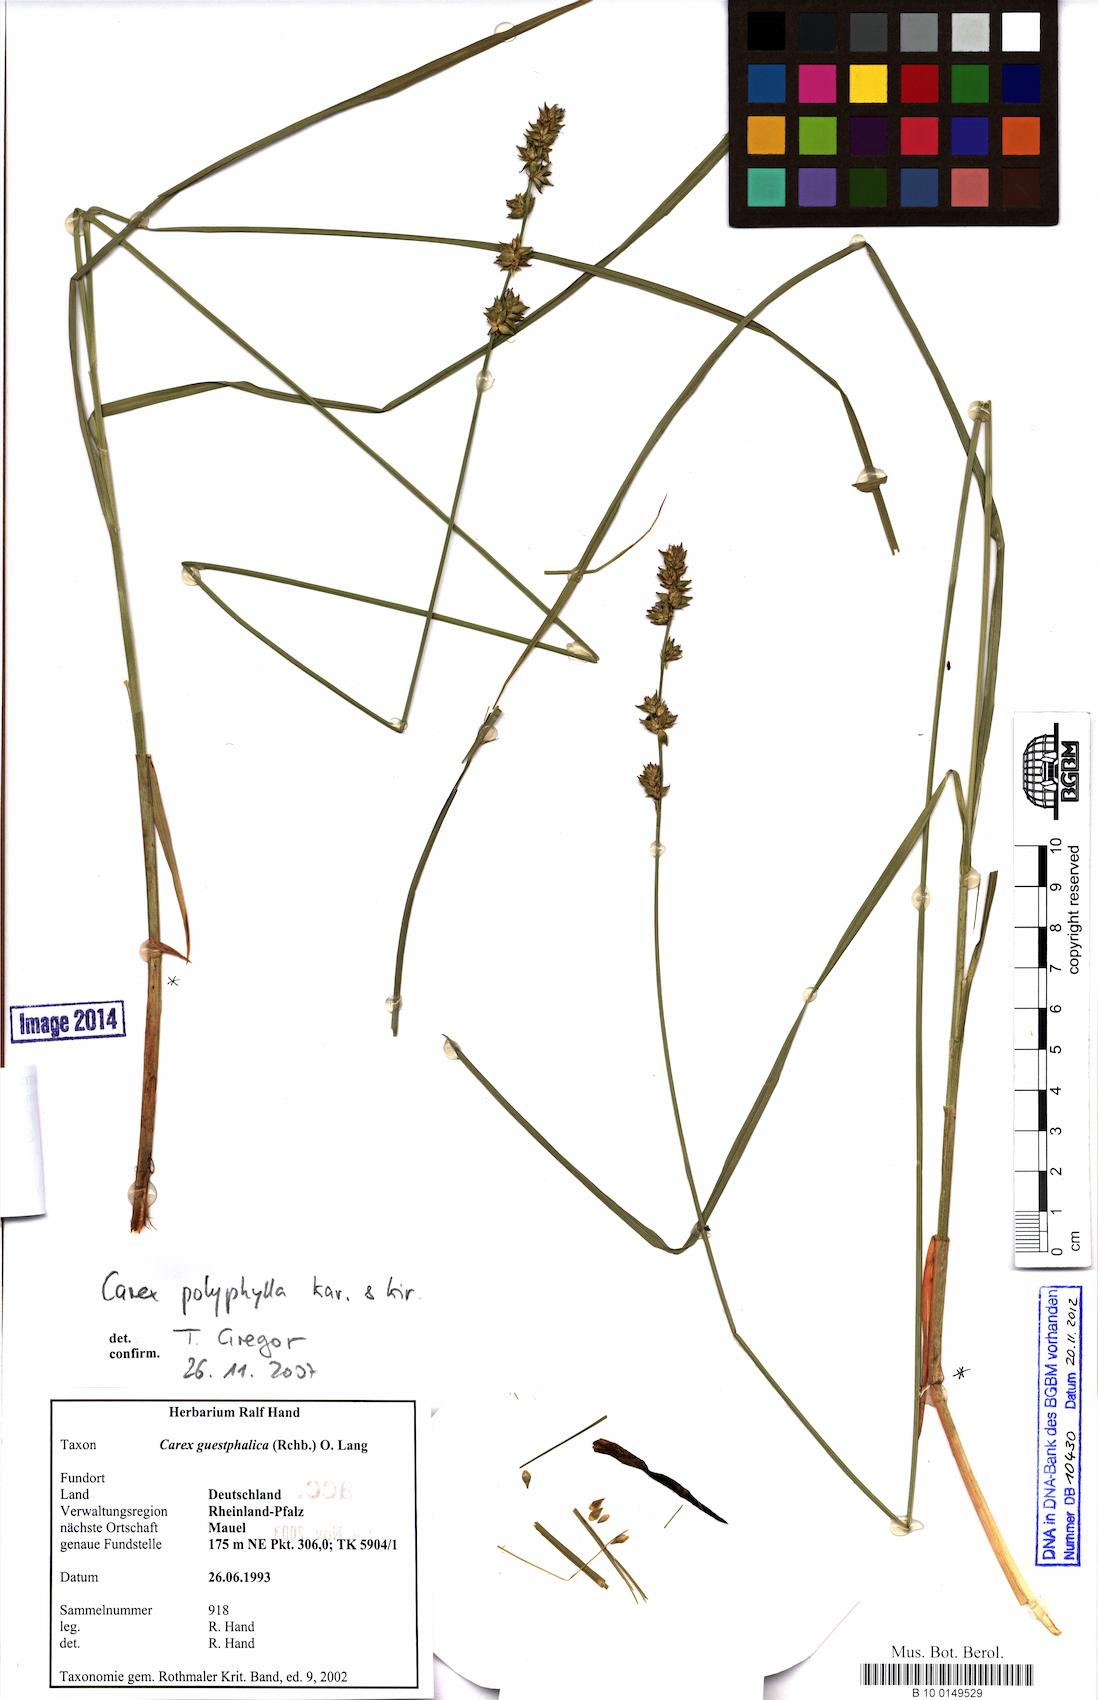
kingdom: Plantae
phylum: Tracheophyta
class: Liliopsida
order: Poales
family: Cyperaceae
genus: Carex
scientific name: Carex polyphylla
